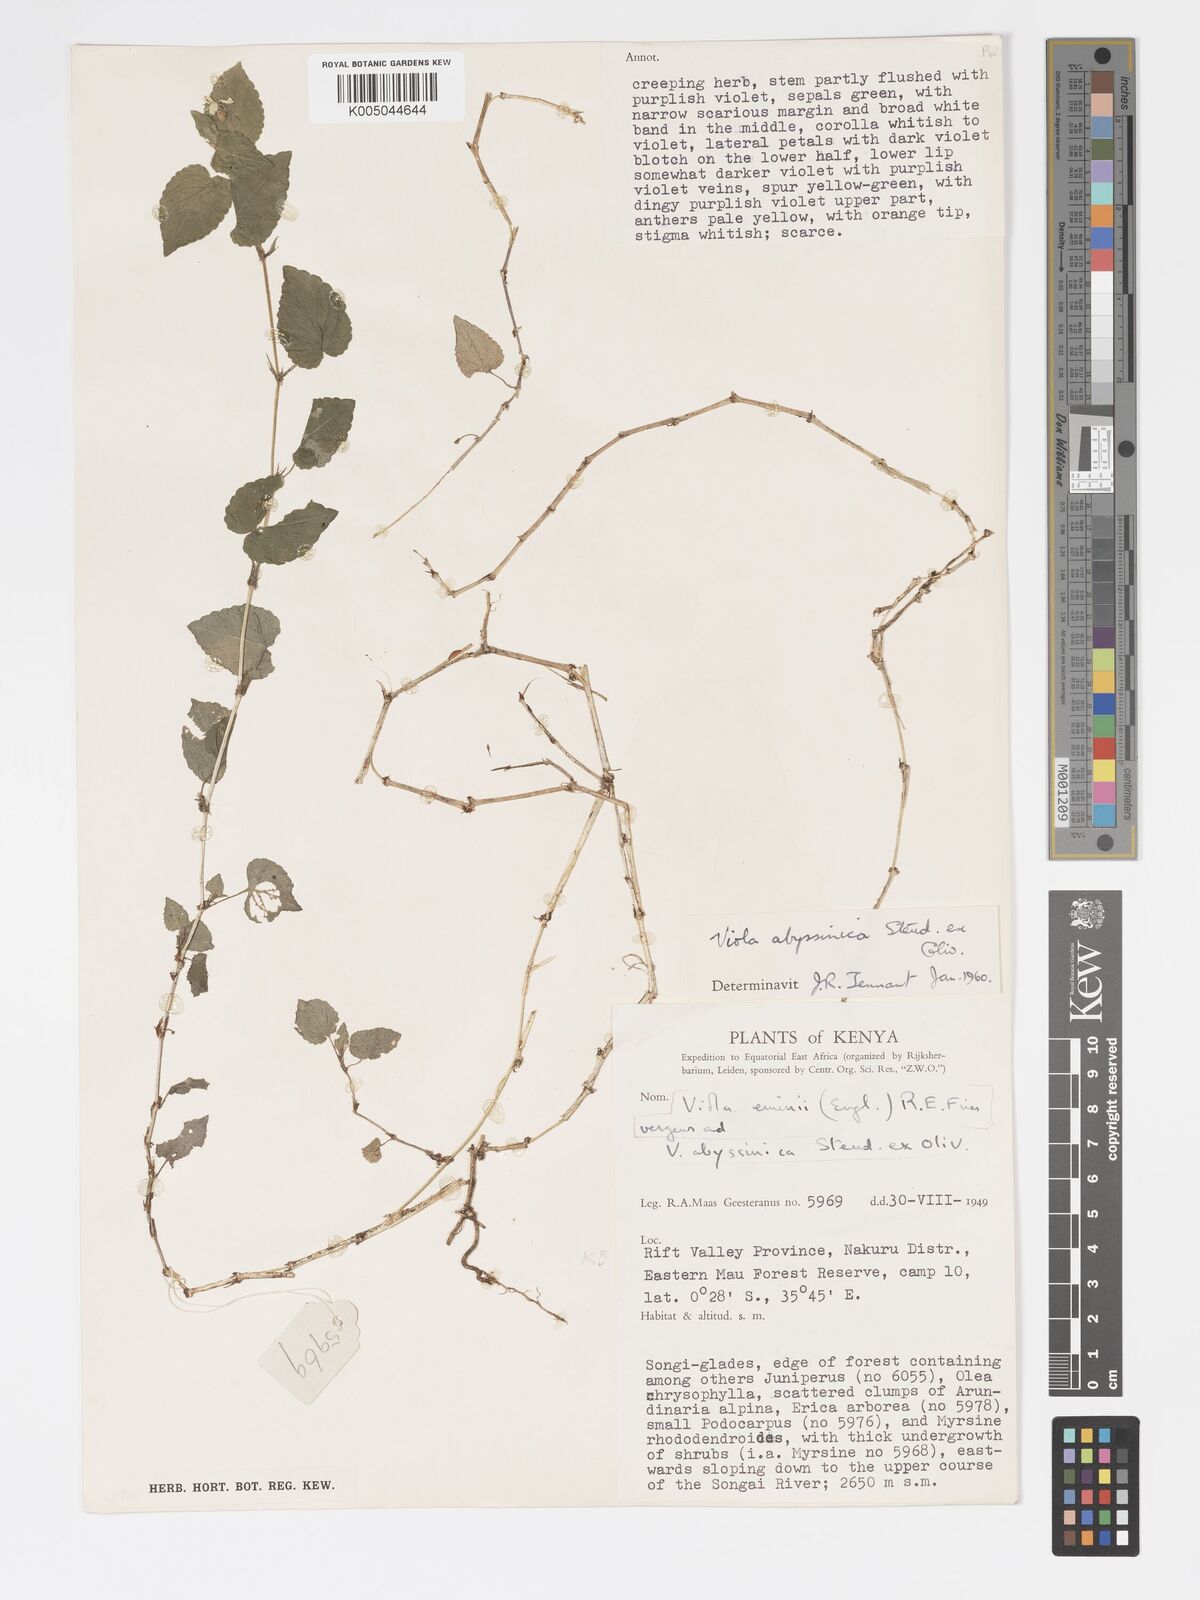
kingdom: Plantae
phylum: Tracheophyta
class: Magnoliopsida
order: Malpighiales
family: Violaceae
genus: Viola
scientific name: Viola abyssinica
